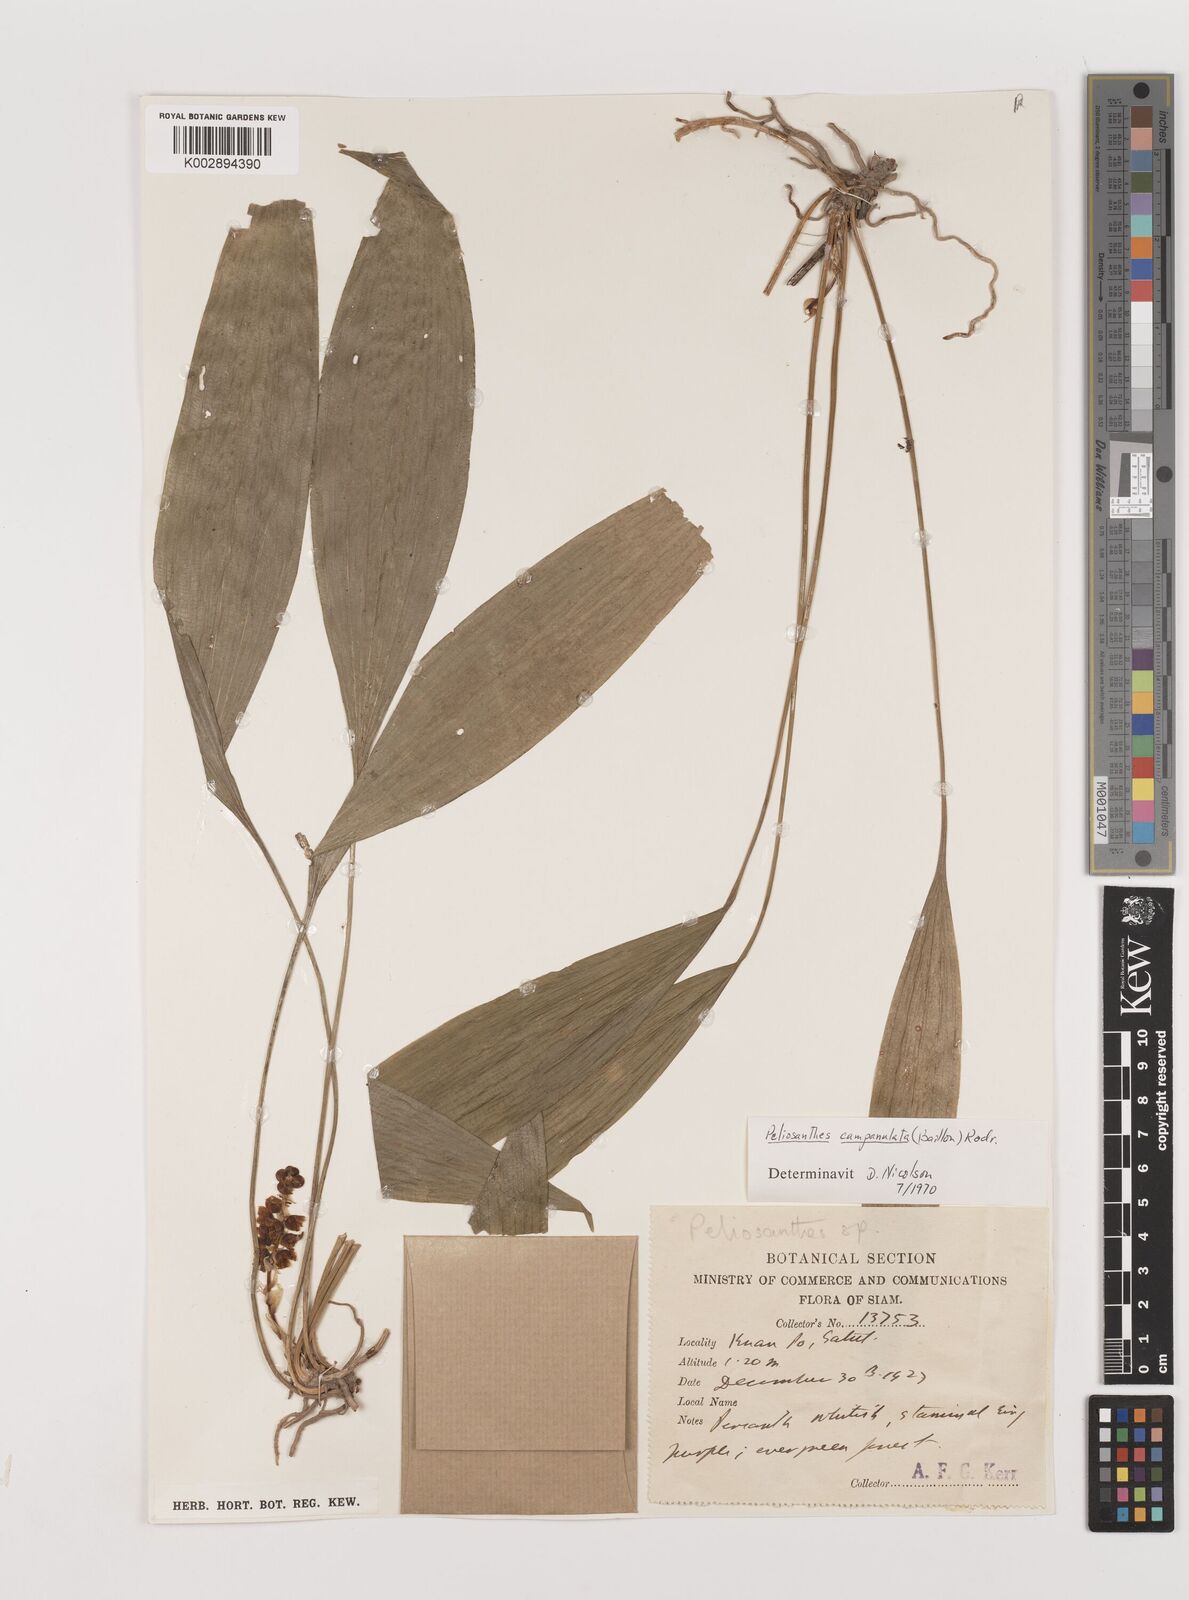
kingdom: Plantae
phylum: Tracheophyta
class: Liliopsida
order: Asparagales
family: Asparagaceae
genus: Peliosanthes
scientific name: Peliosanthes teta
